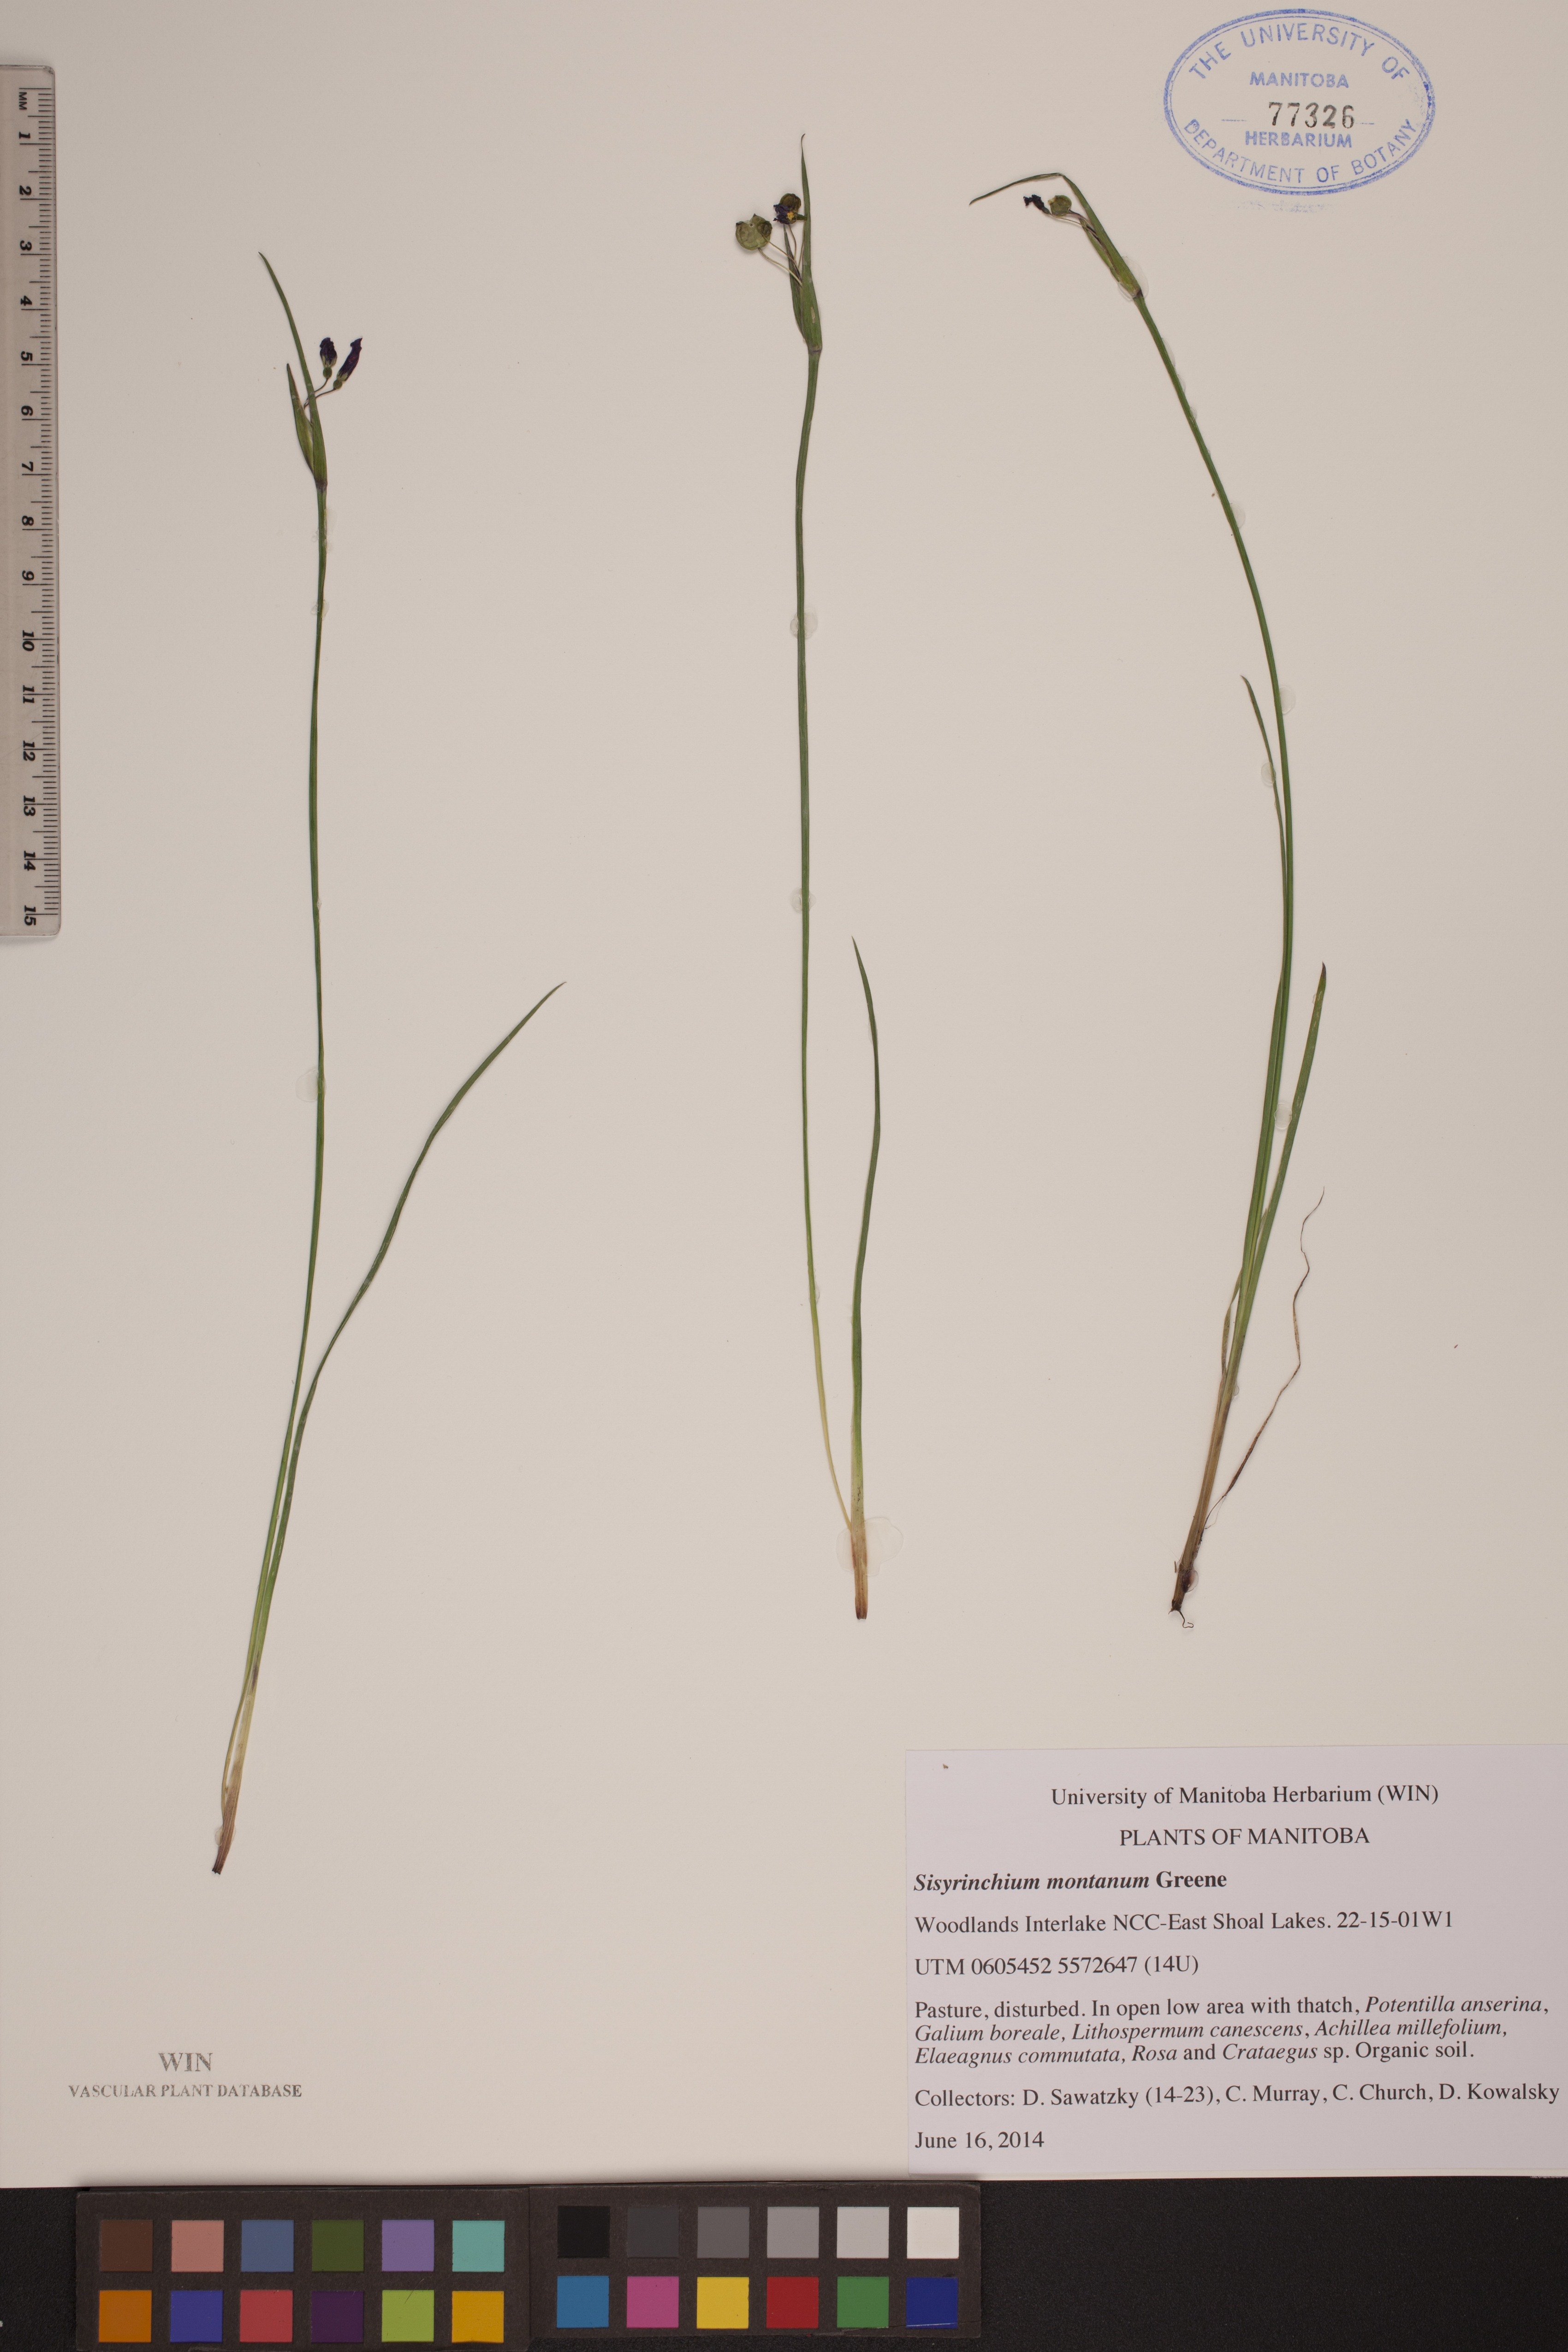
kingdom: Plantae
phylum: Tracheophyta
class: Liliopsida
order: Asparagales
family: Iridaceae
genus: Sisyrinchium
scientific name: Sisyrinchium montanum
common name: American blue-eyed-grass
